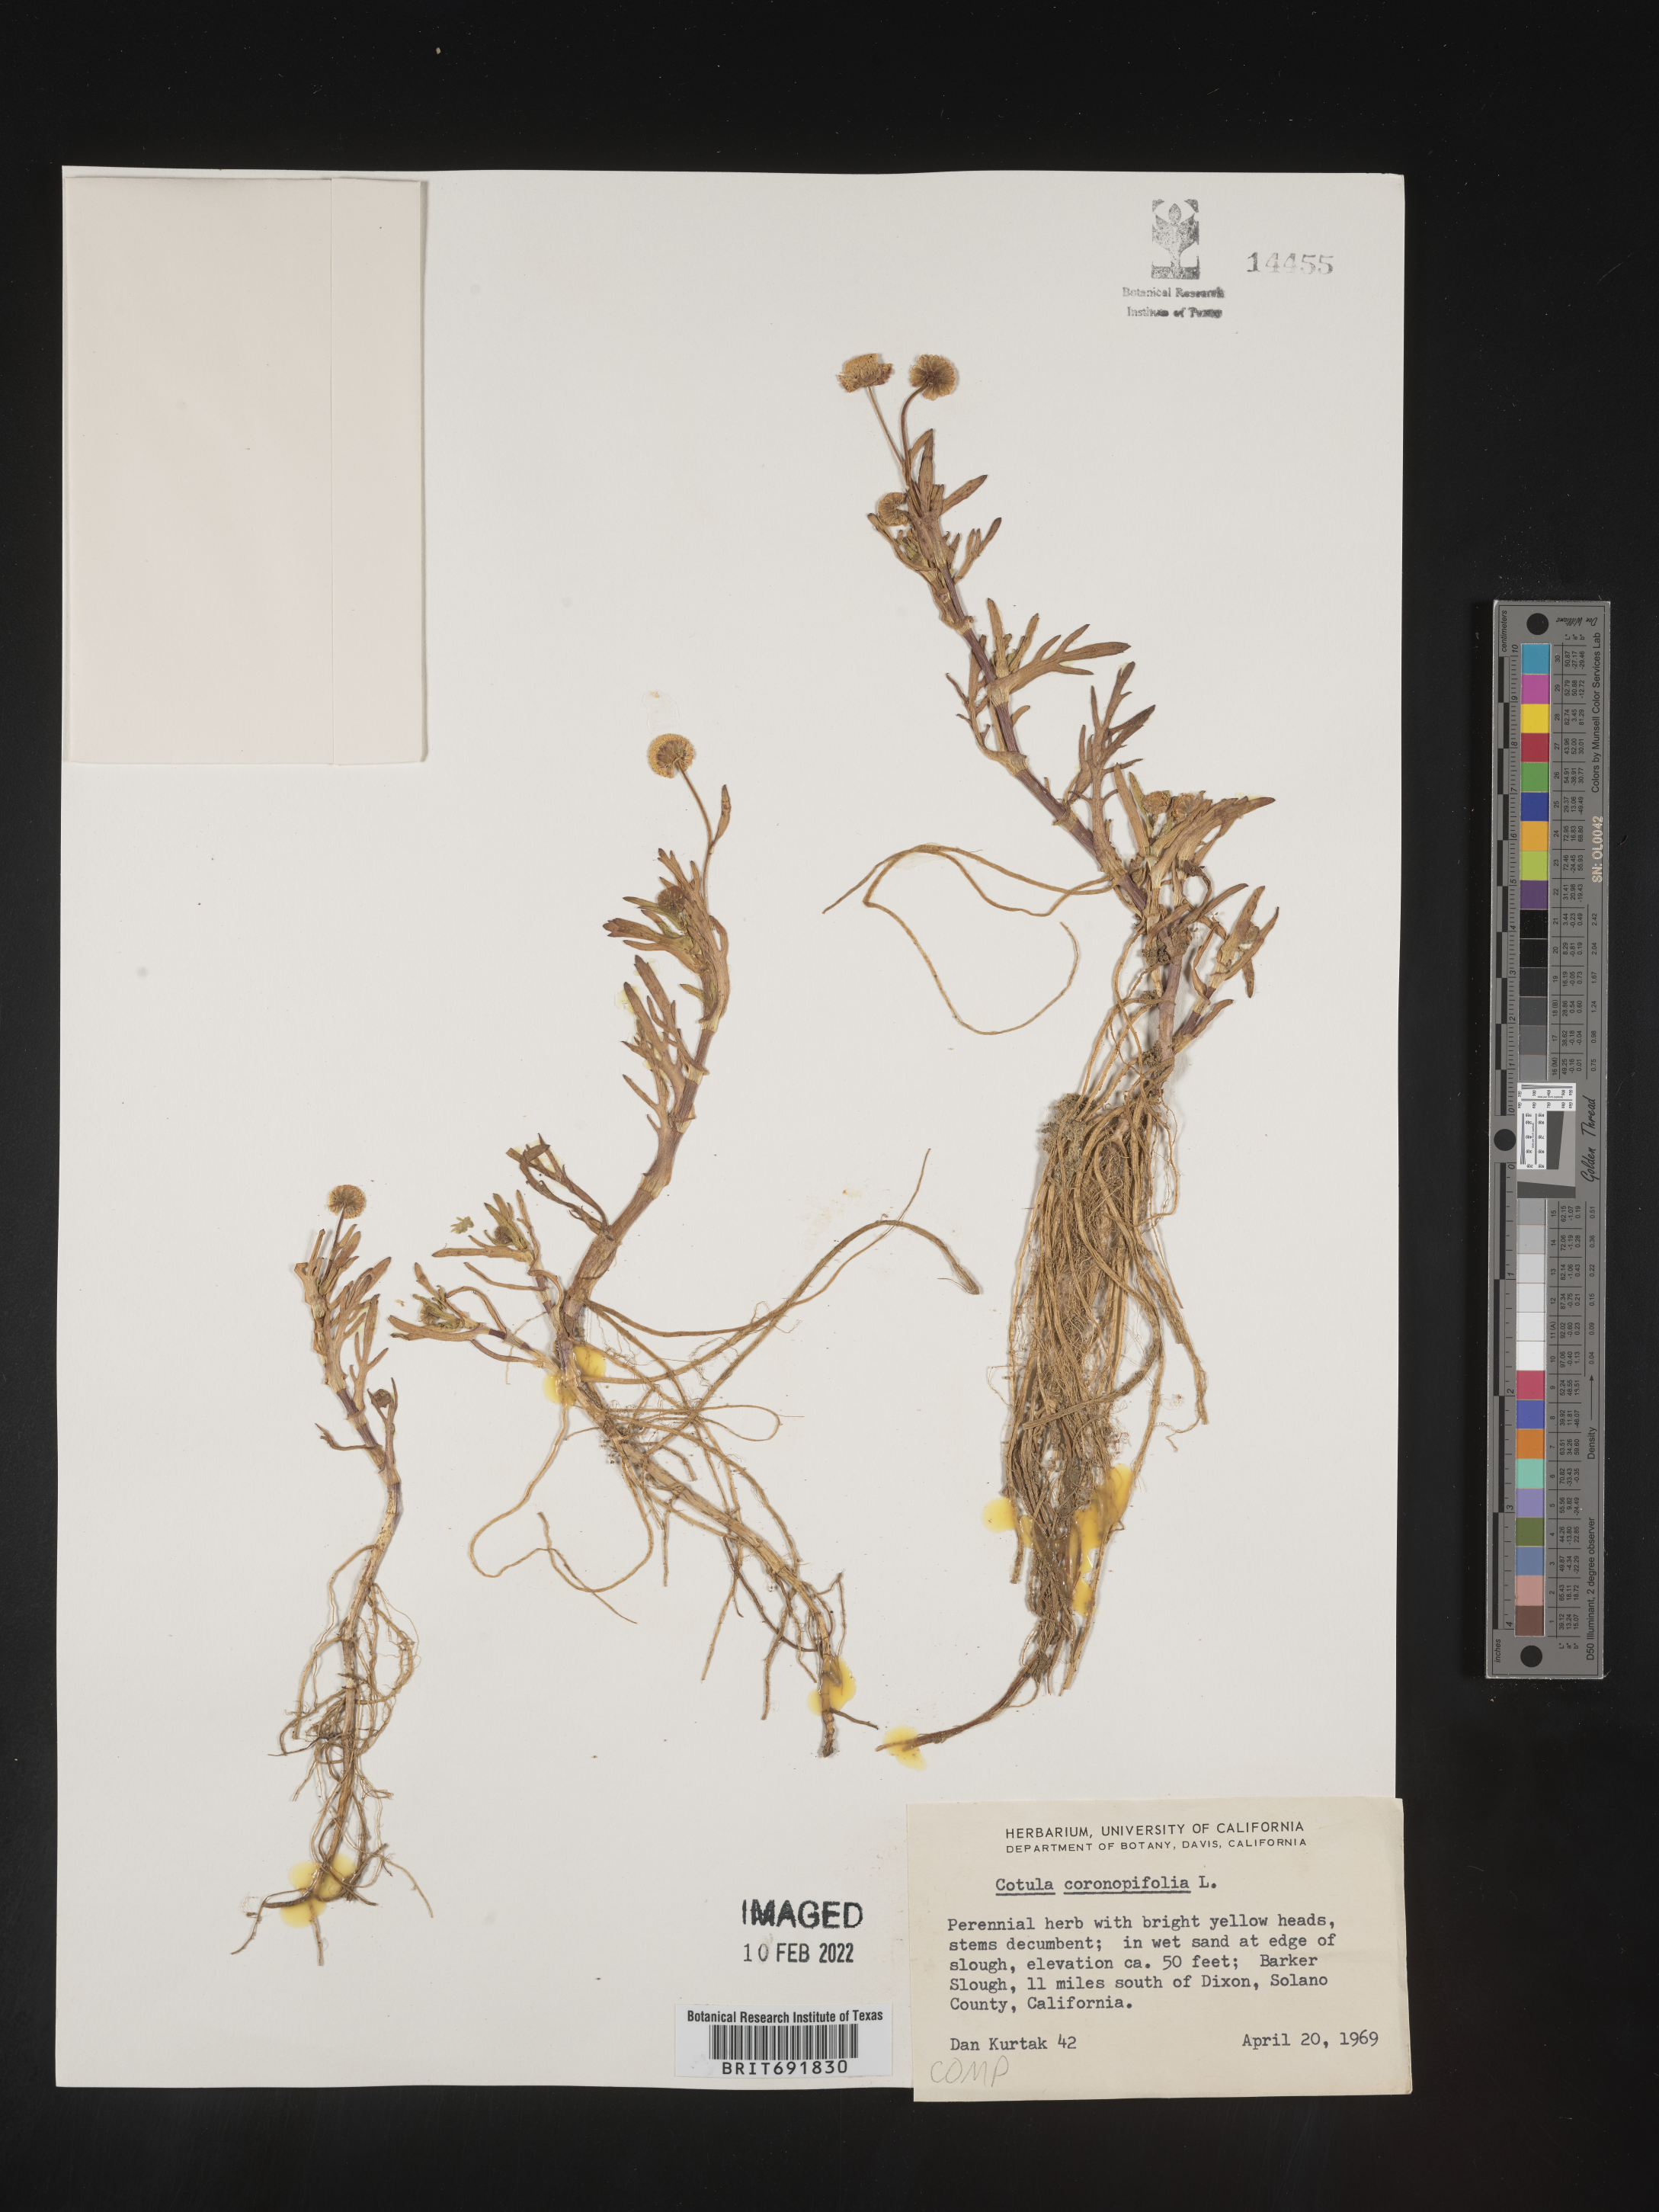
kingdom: Plantae
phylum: Tracheophyta
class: Magnoliopsida
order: Asterales
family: Asteraceae
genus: Cotula
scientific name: Cotula
